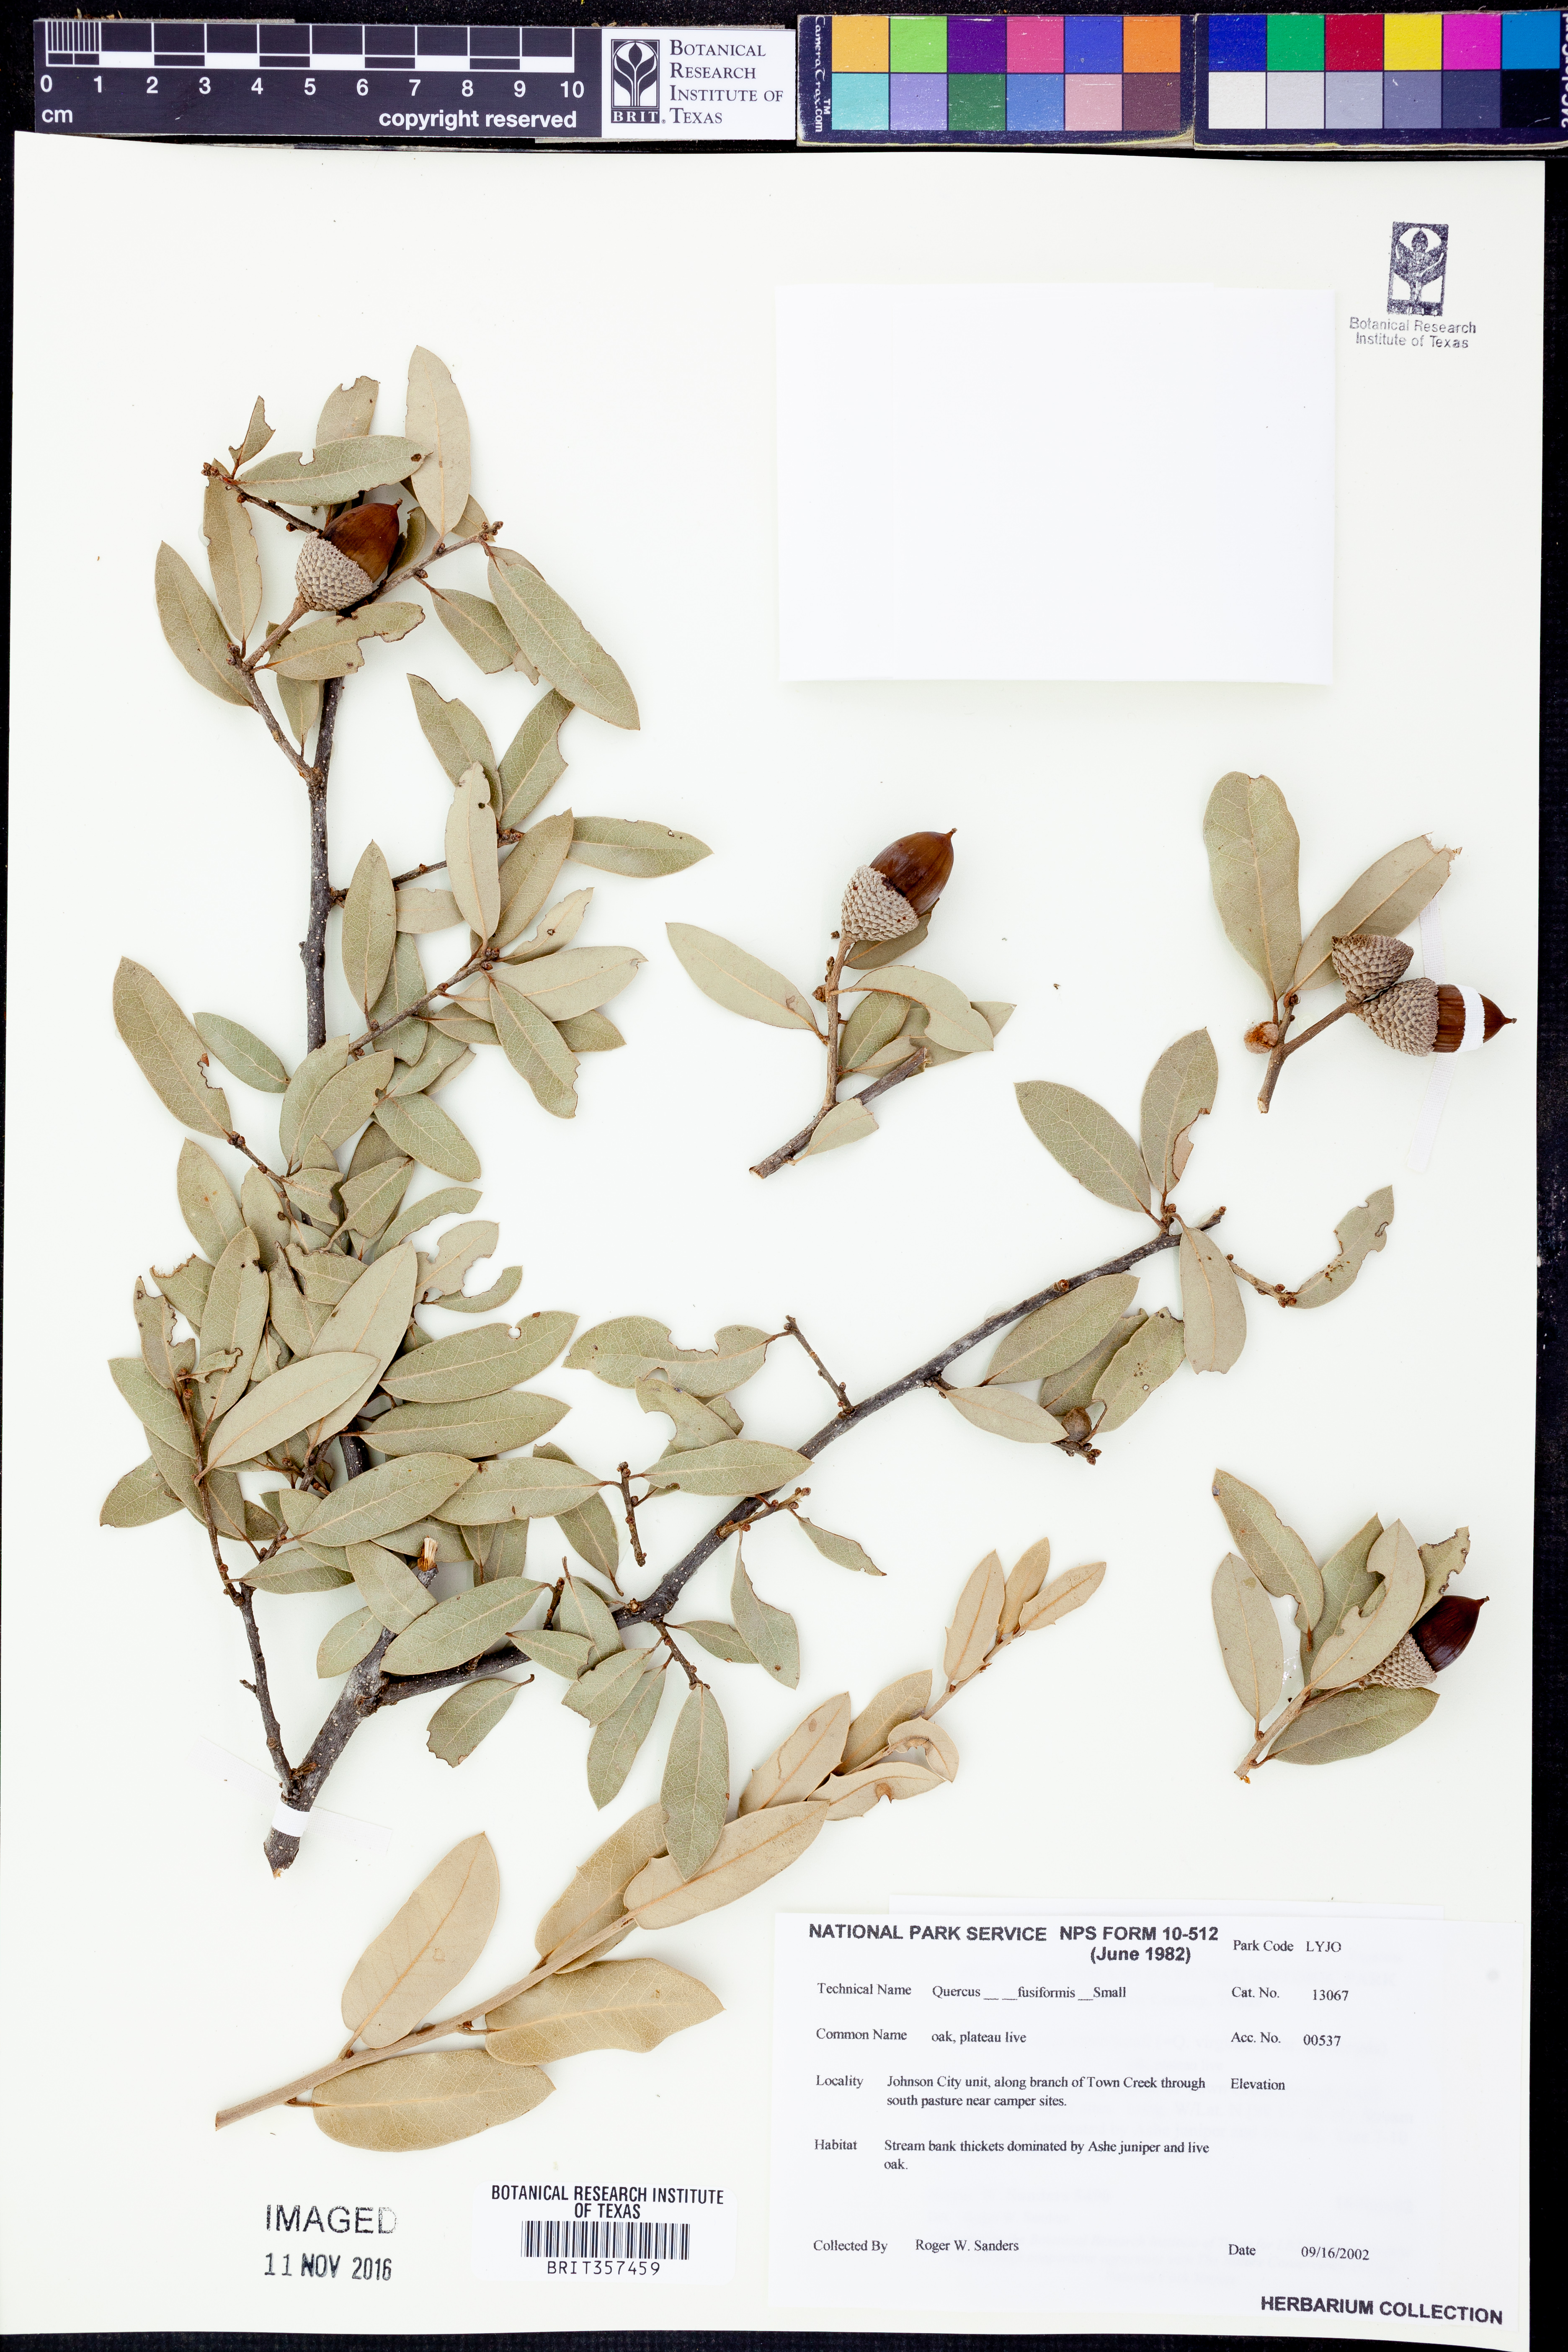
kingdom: Plantae
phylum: Tracheophyta
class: Magnoliopsida
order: Fagales
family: Fagaceae
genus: Quercus
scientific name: Quercus fusiformis
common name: Texas live oak
